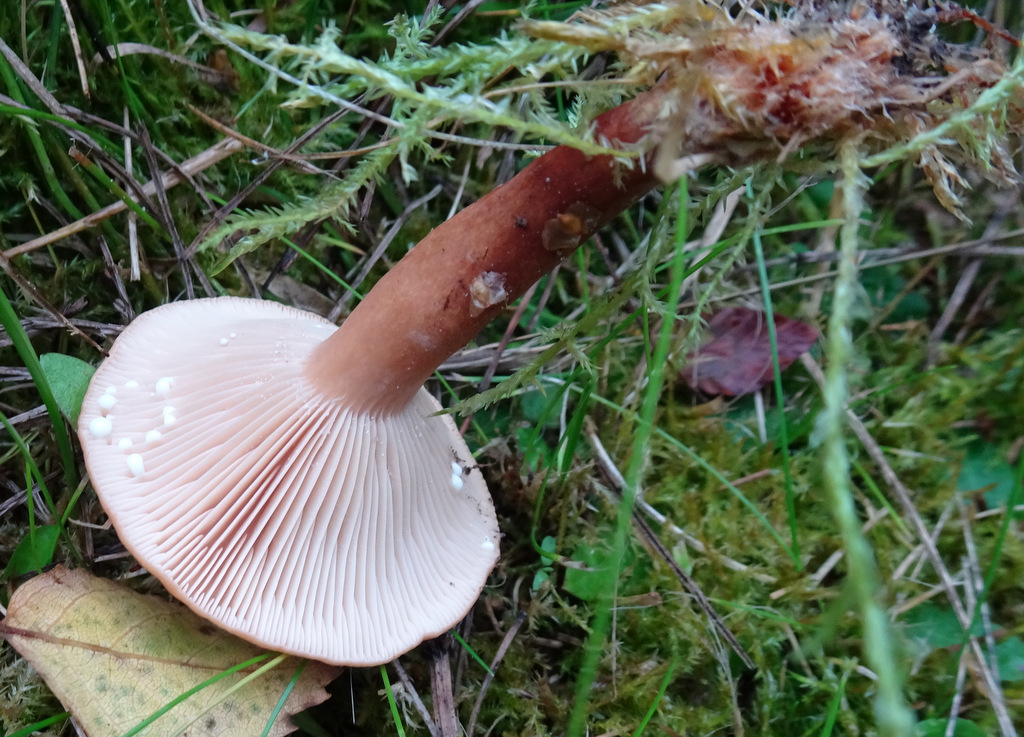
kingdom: Fungi
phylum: Basidiomycota
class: Agaricomycetes
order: Russulales
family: Russulaceae
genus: Lactarius
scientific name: Lactarius tabidus
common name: rynket mælkehat
